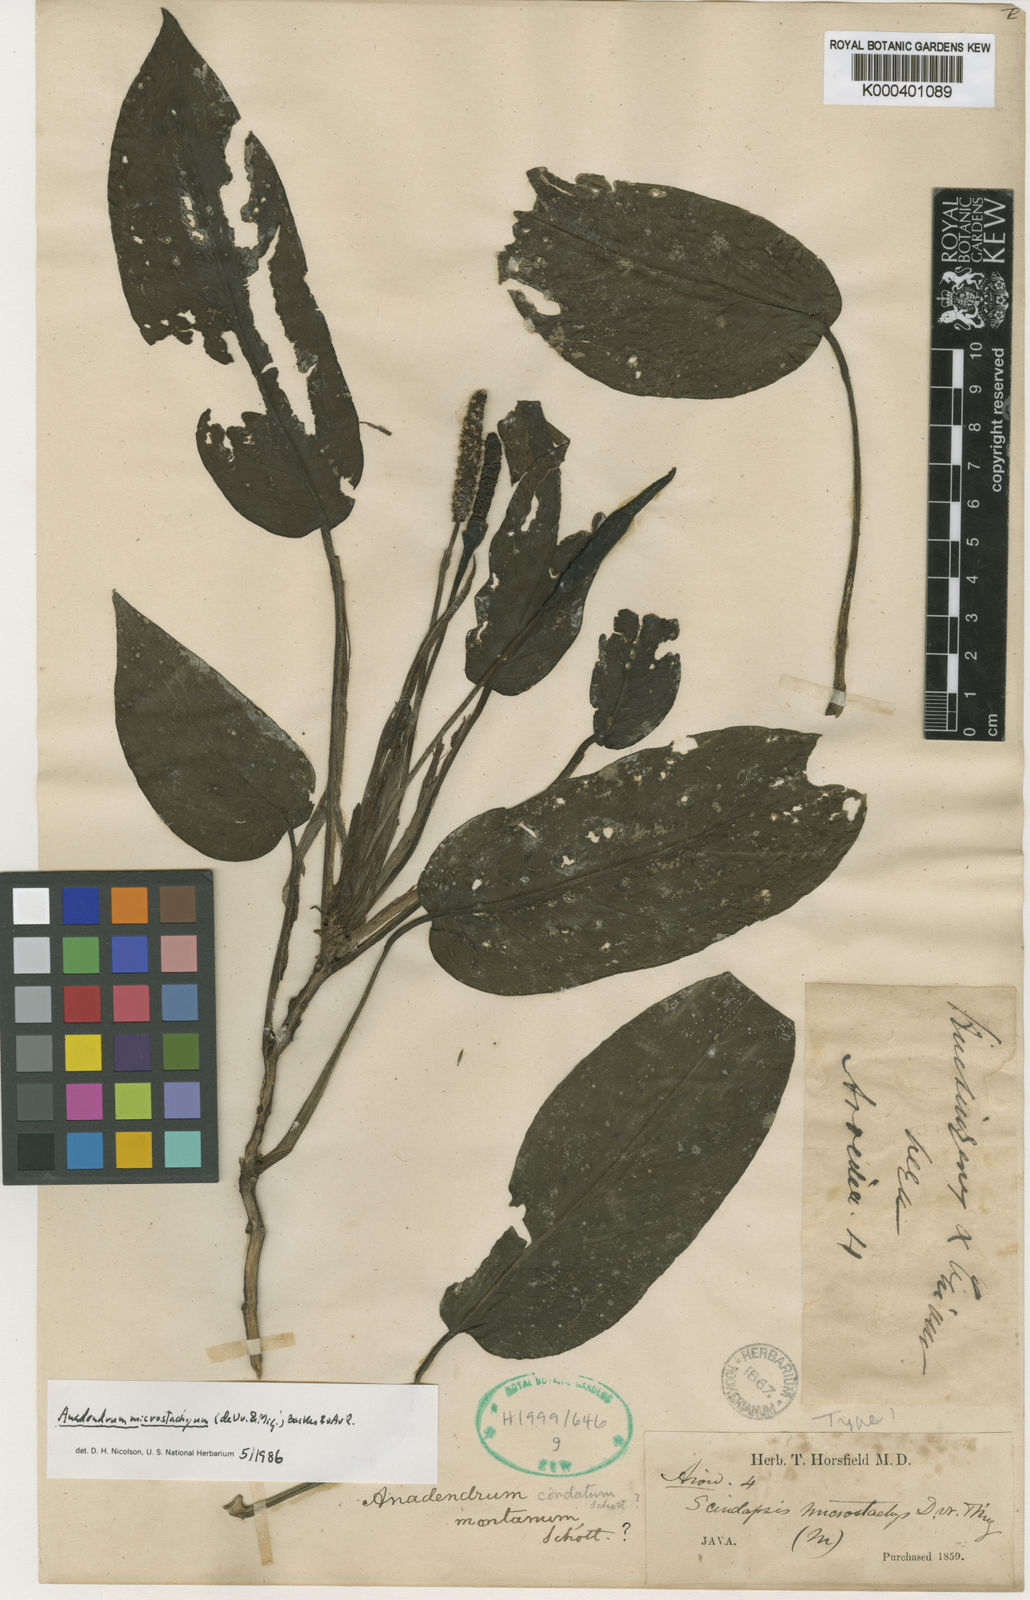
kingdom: Plantae
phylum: Tracheophyta
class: Liliopsida
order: Alismatales
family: Araceae
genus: Anadendrum
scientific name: Anadendrum microstachyum
